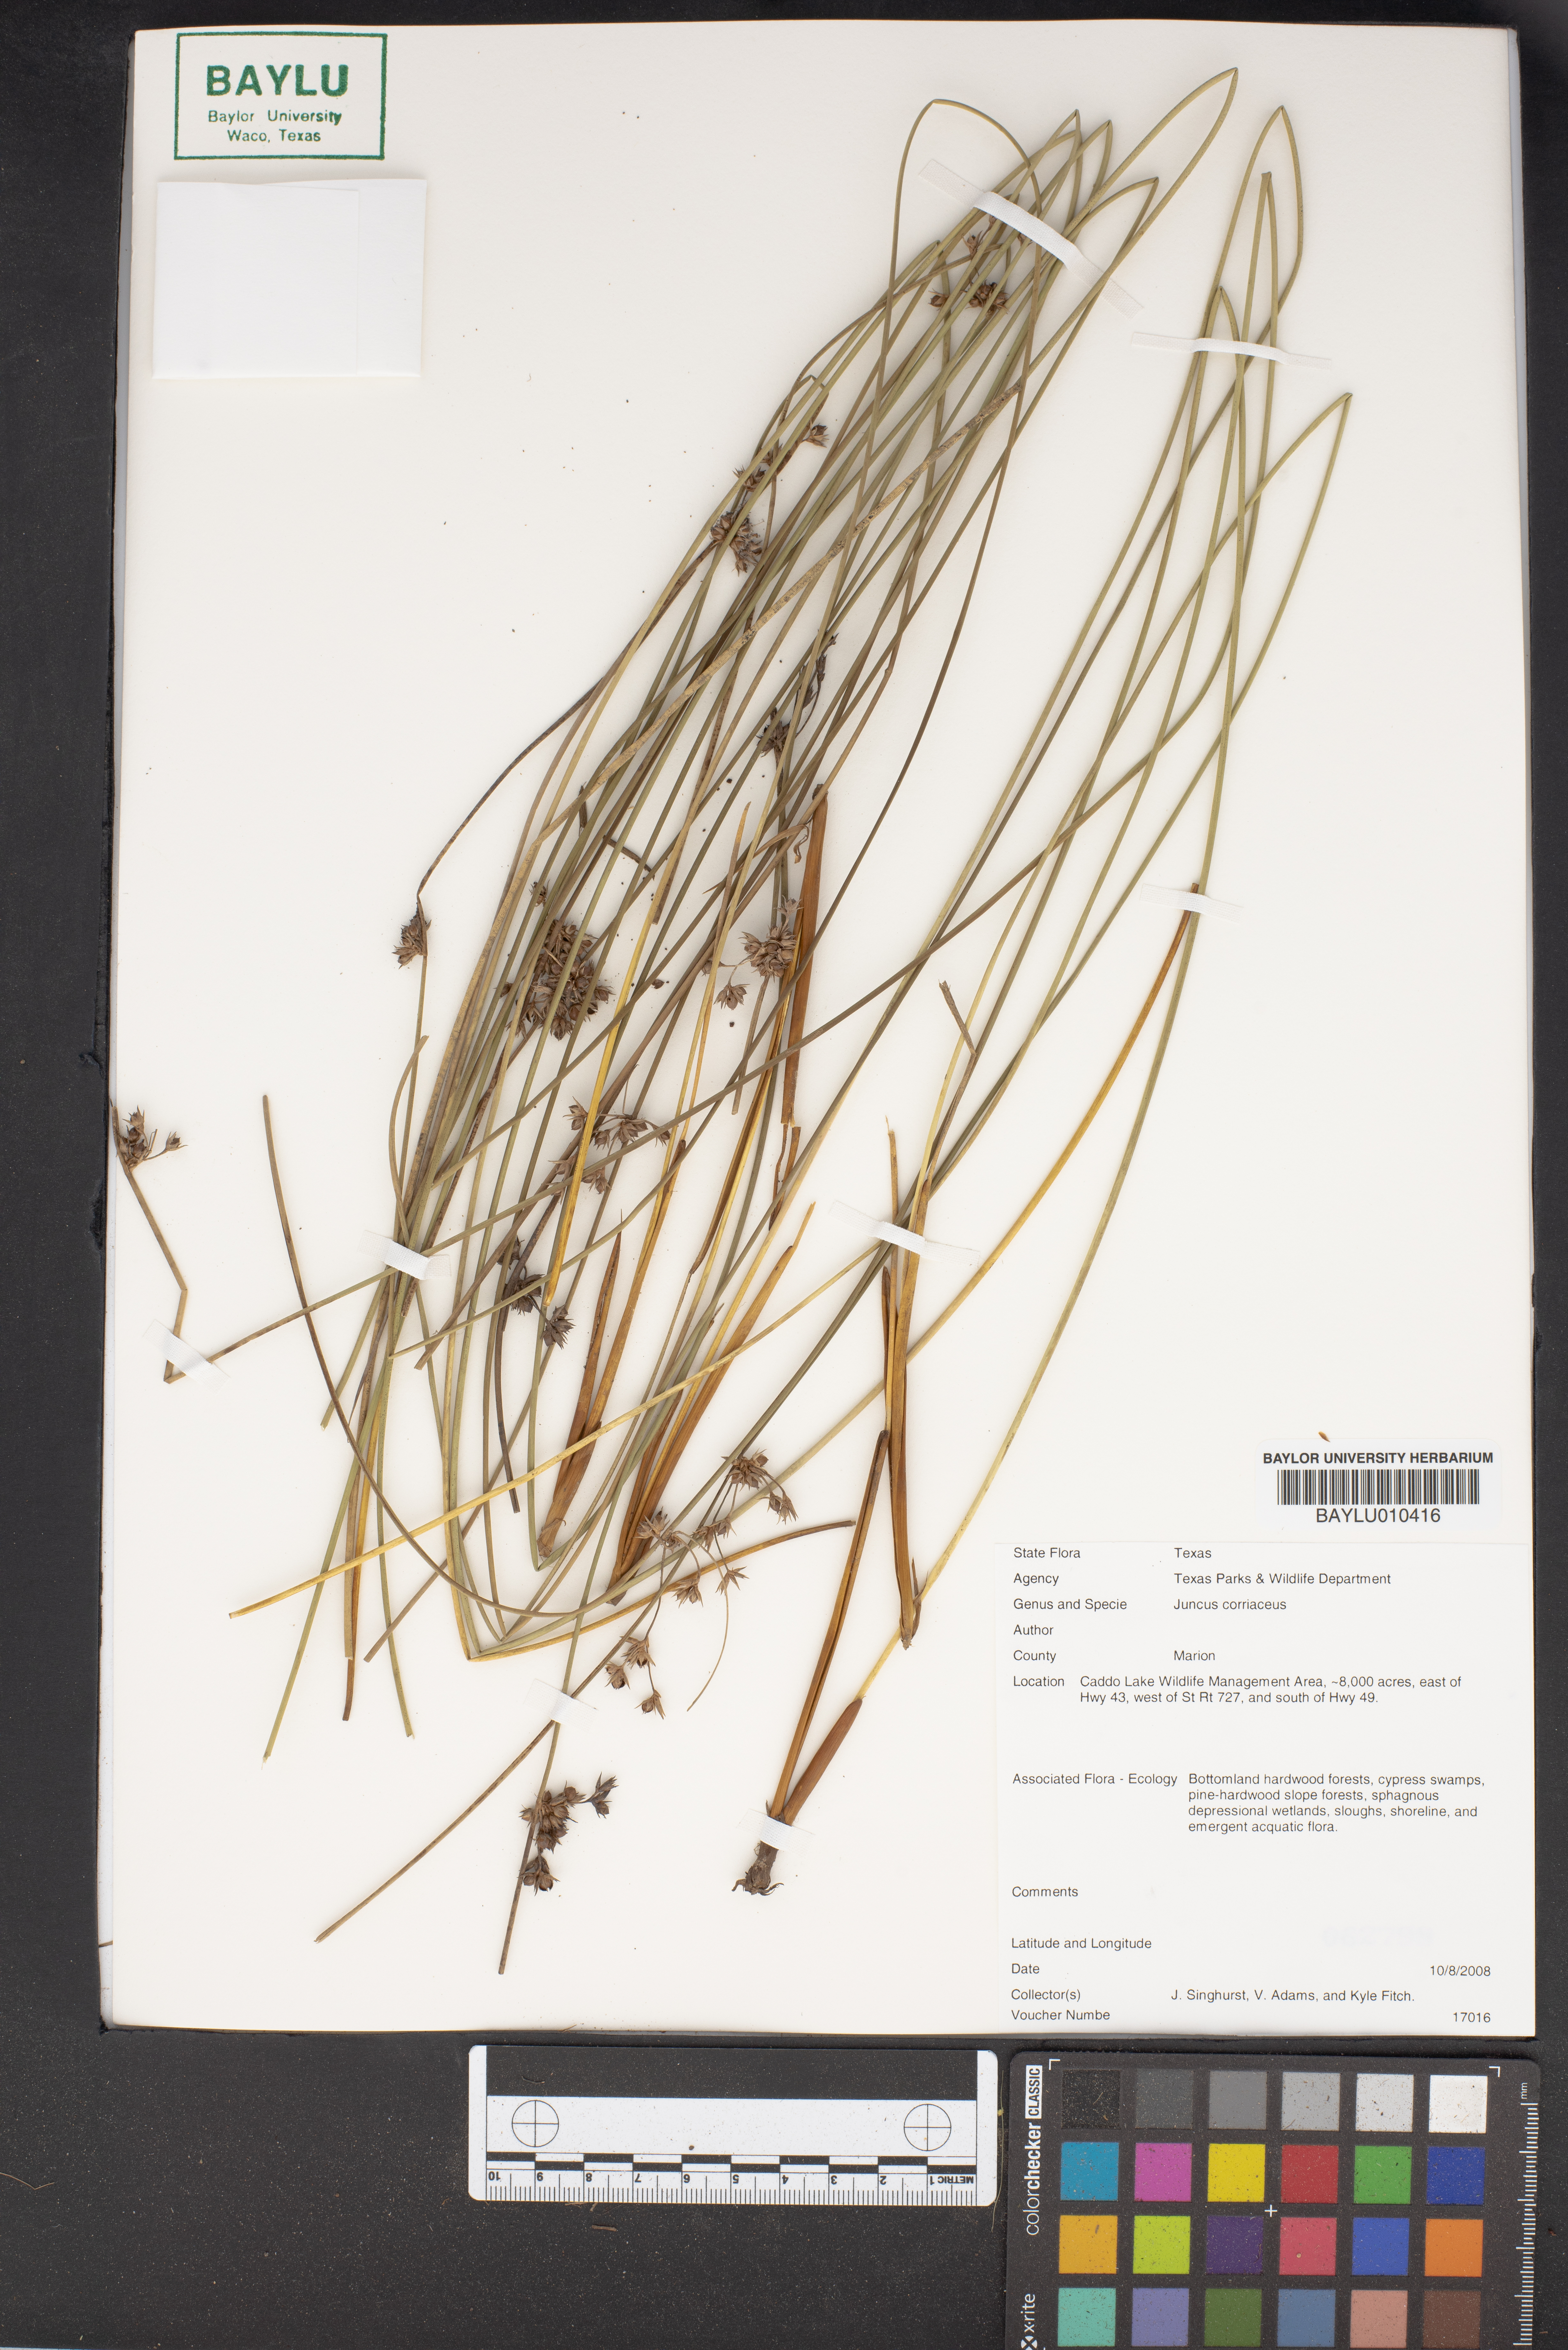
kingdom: Plantae
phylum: Tracheophyta
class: Liliopsida
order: Poales
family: Juncaceae
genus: Juncus
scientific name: Juncus coriaceus
